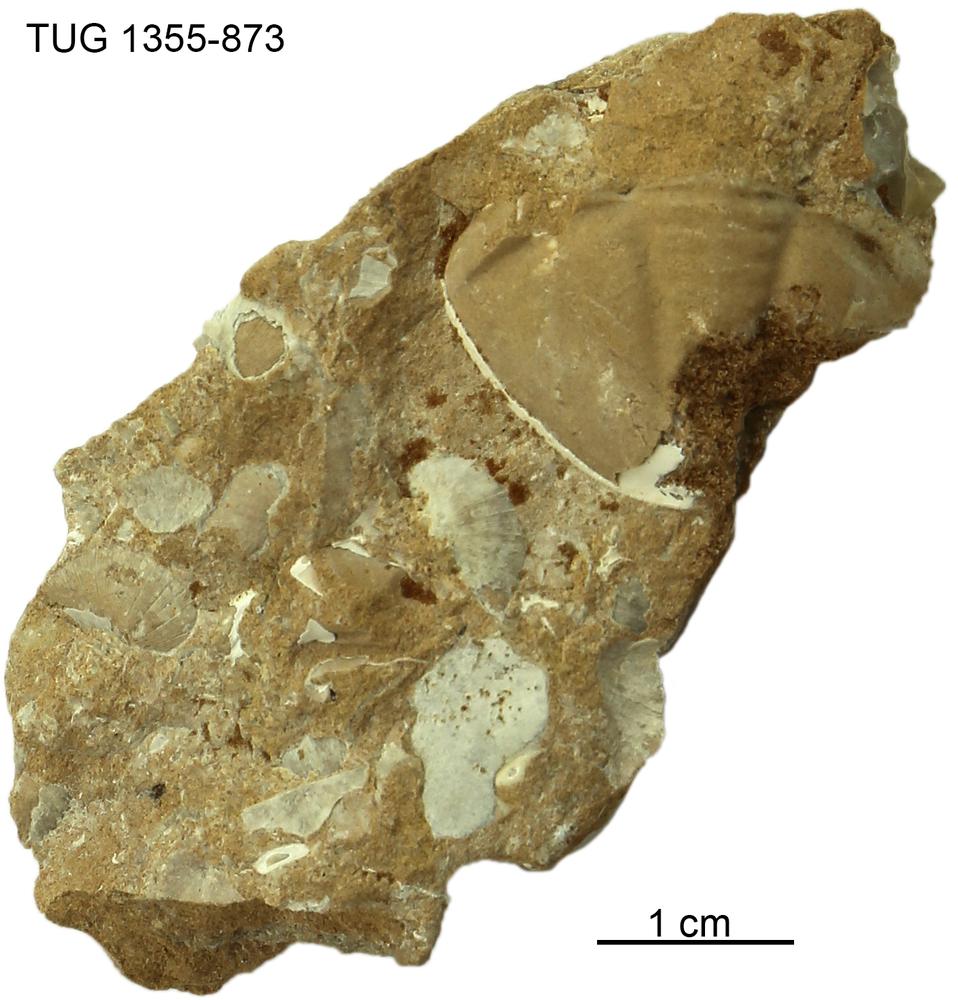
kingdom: Animalia
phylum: Arthropoda
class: Trilobita
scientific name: Trilobita
